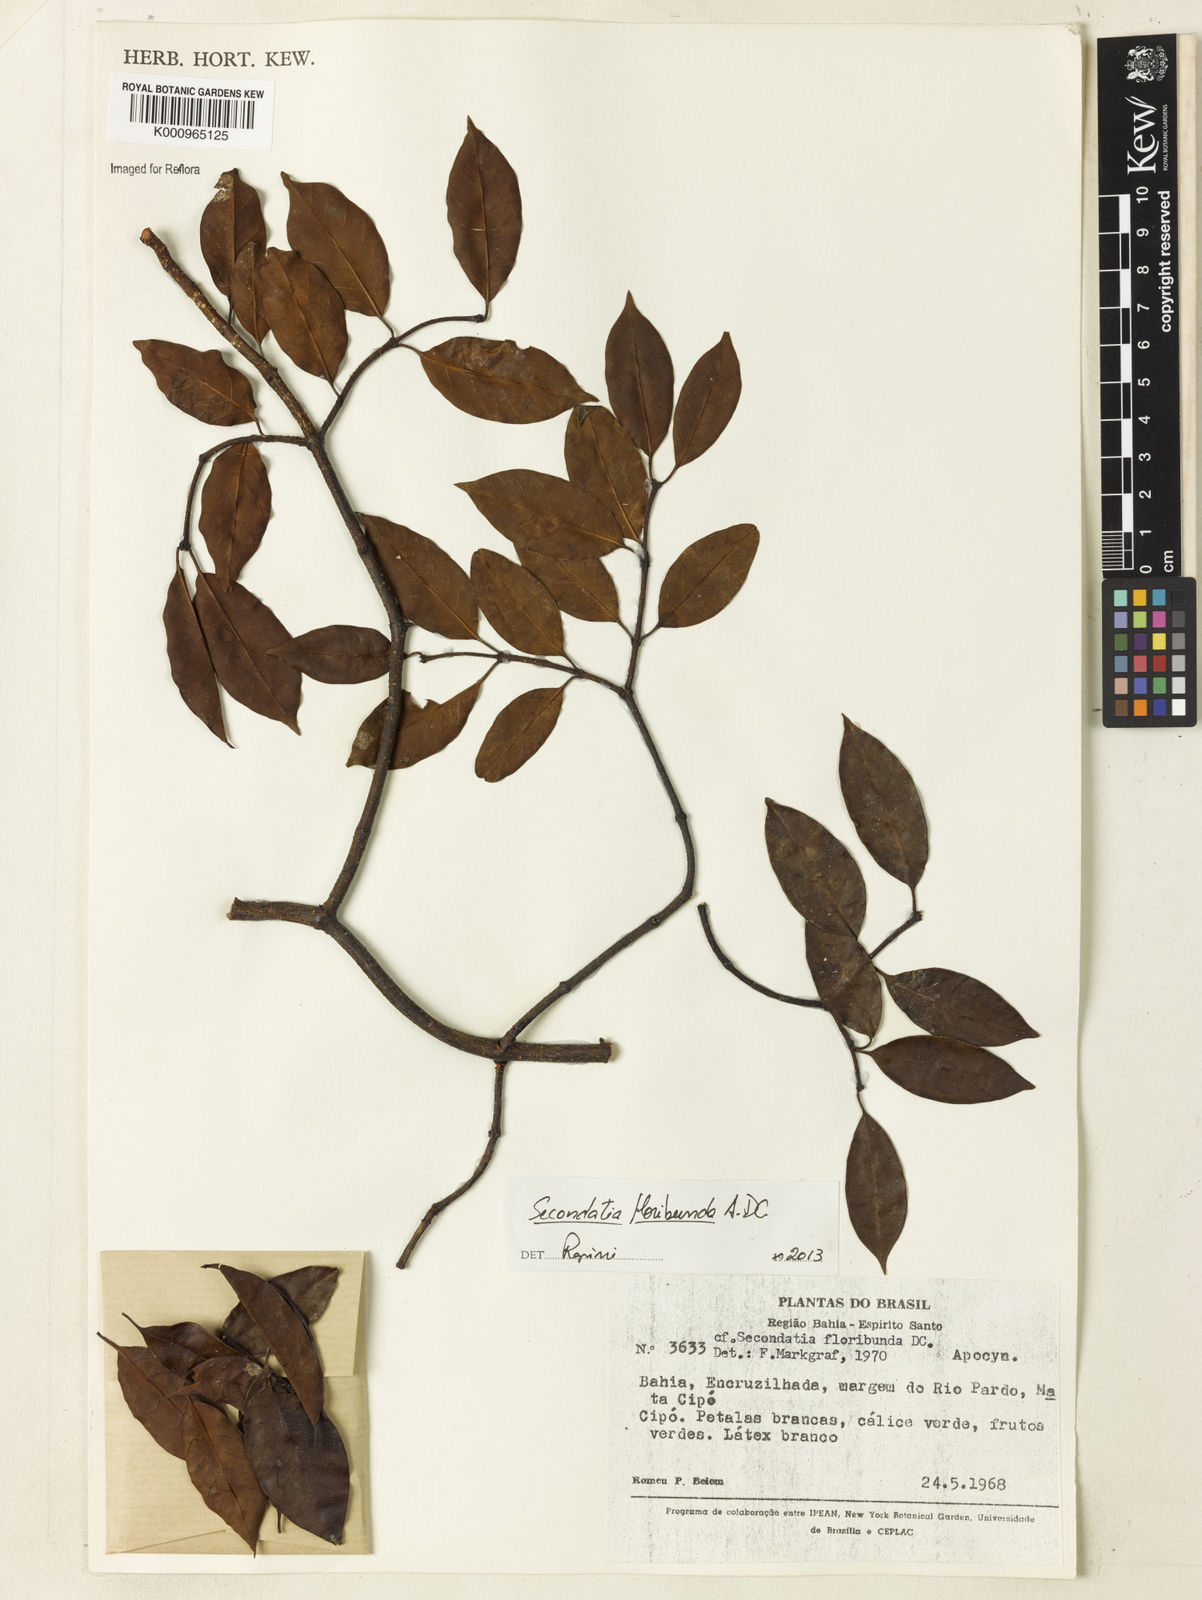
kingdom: Plantae
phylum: Tracheophyta
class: Magnoliopsida
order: Gentianales
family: Apocynaceae
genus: Secondatia
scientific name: Secondatia floribunda
